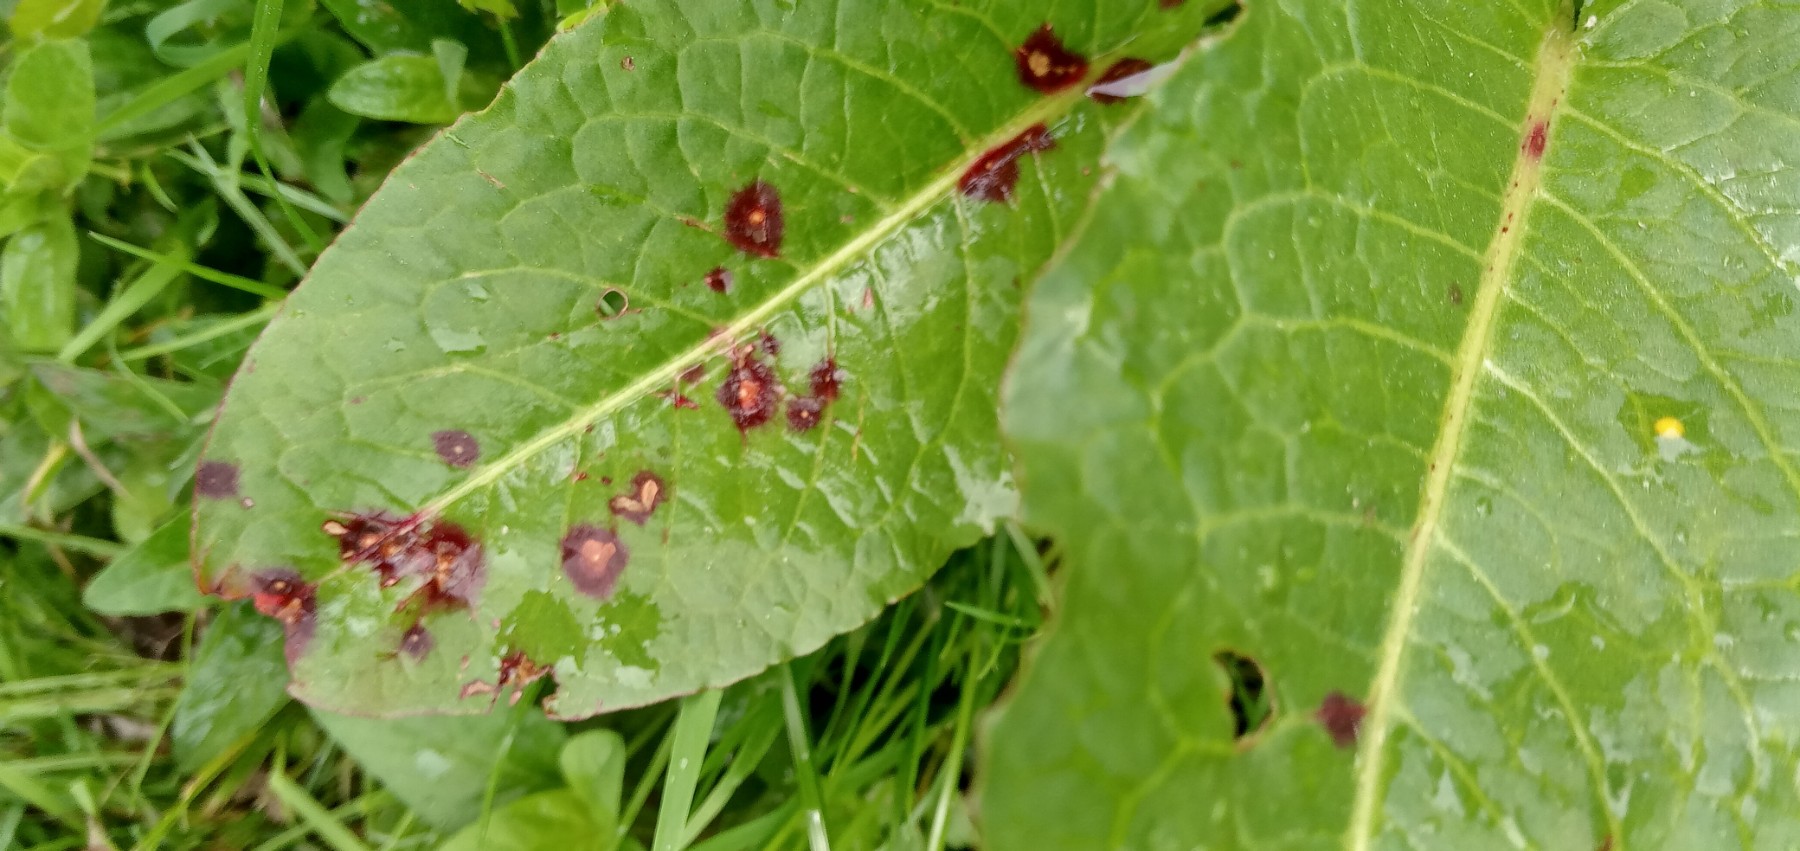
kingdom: Fungi
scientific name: Fungi
